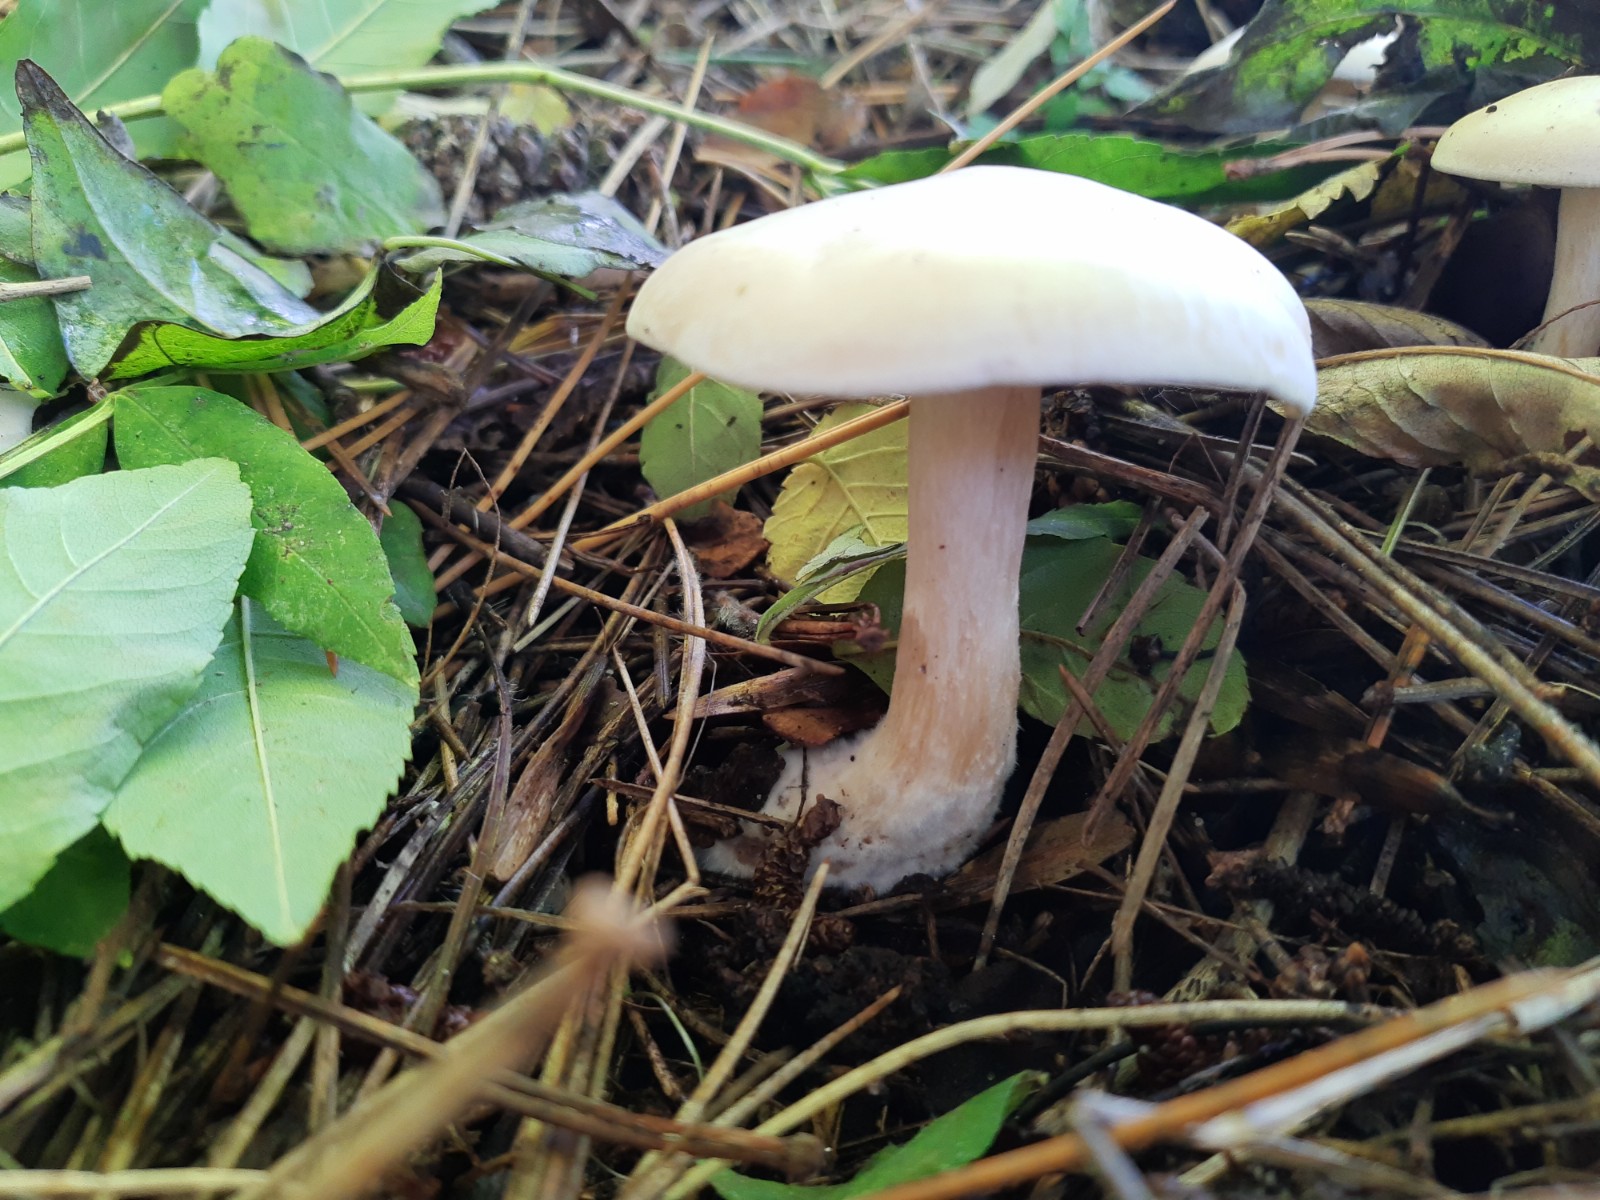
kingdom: Fungi
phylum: Basidiomycota
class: Agaricomycetes
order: Agaricales
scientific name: Agaricales
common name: champignonordenen
